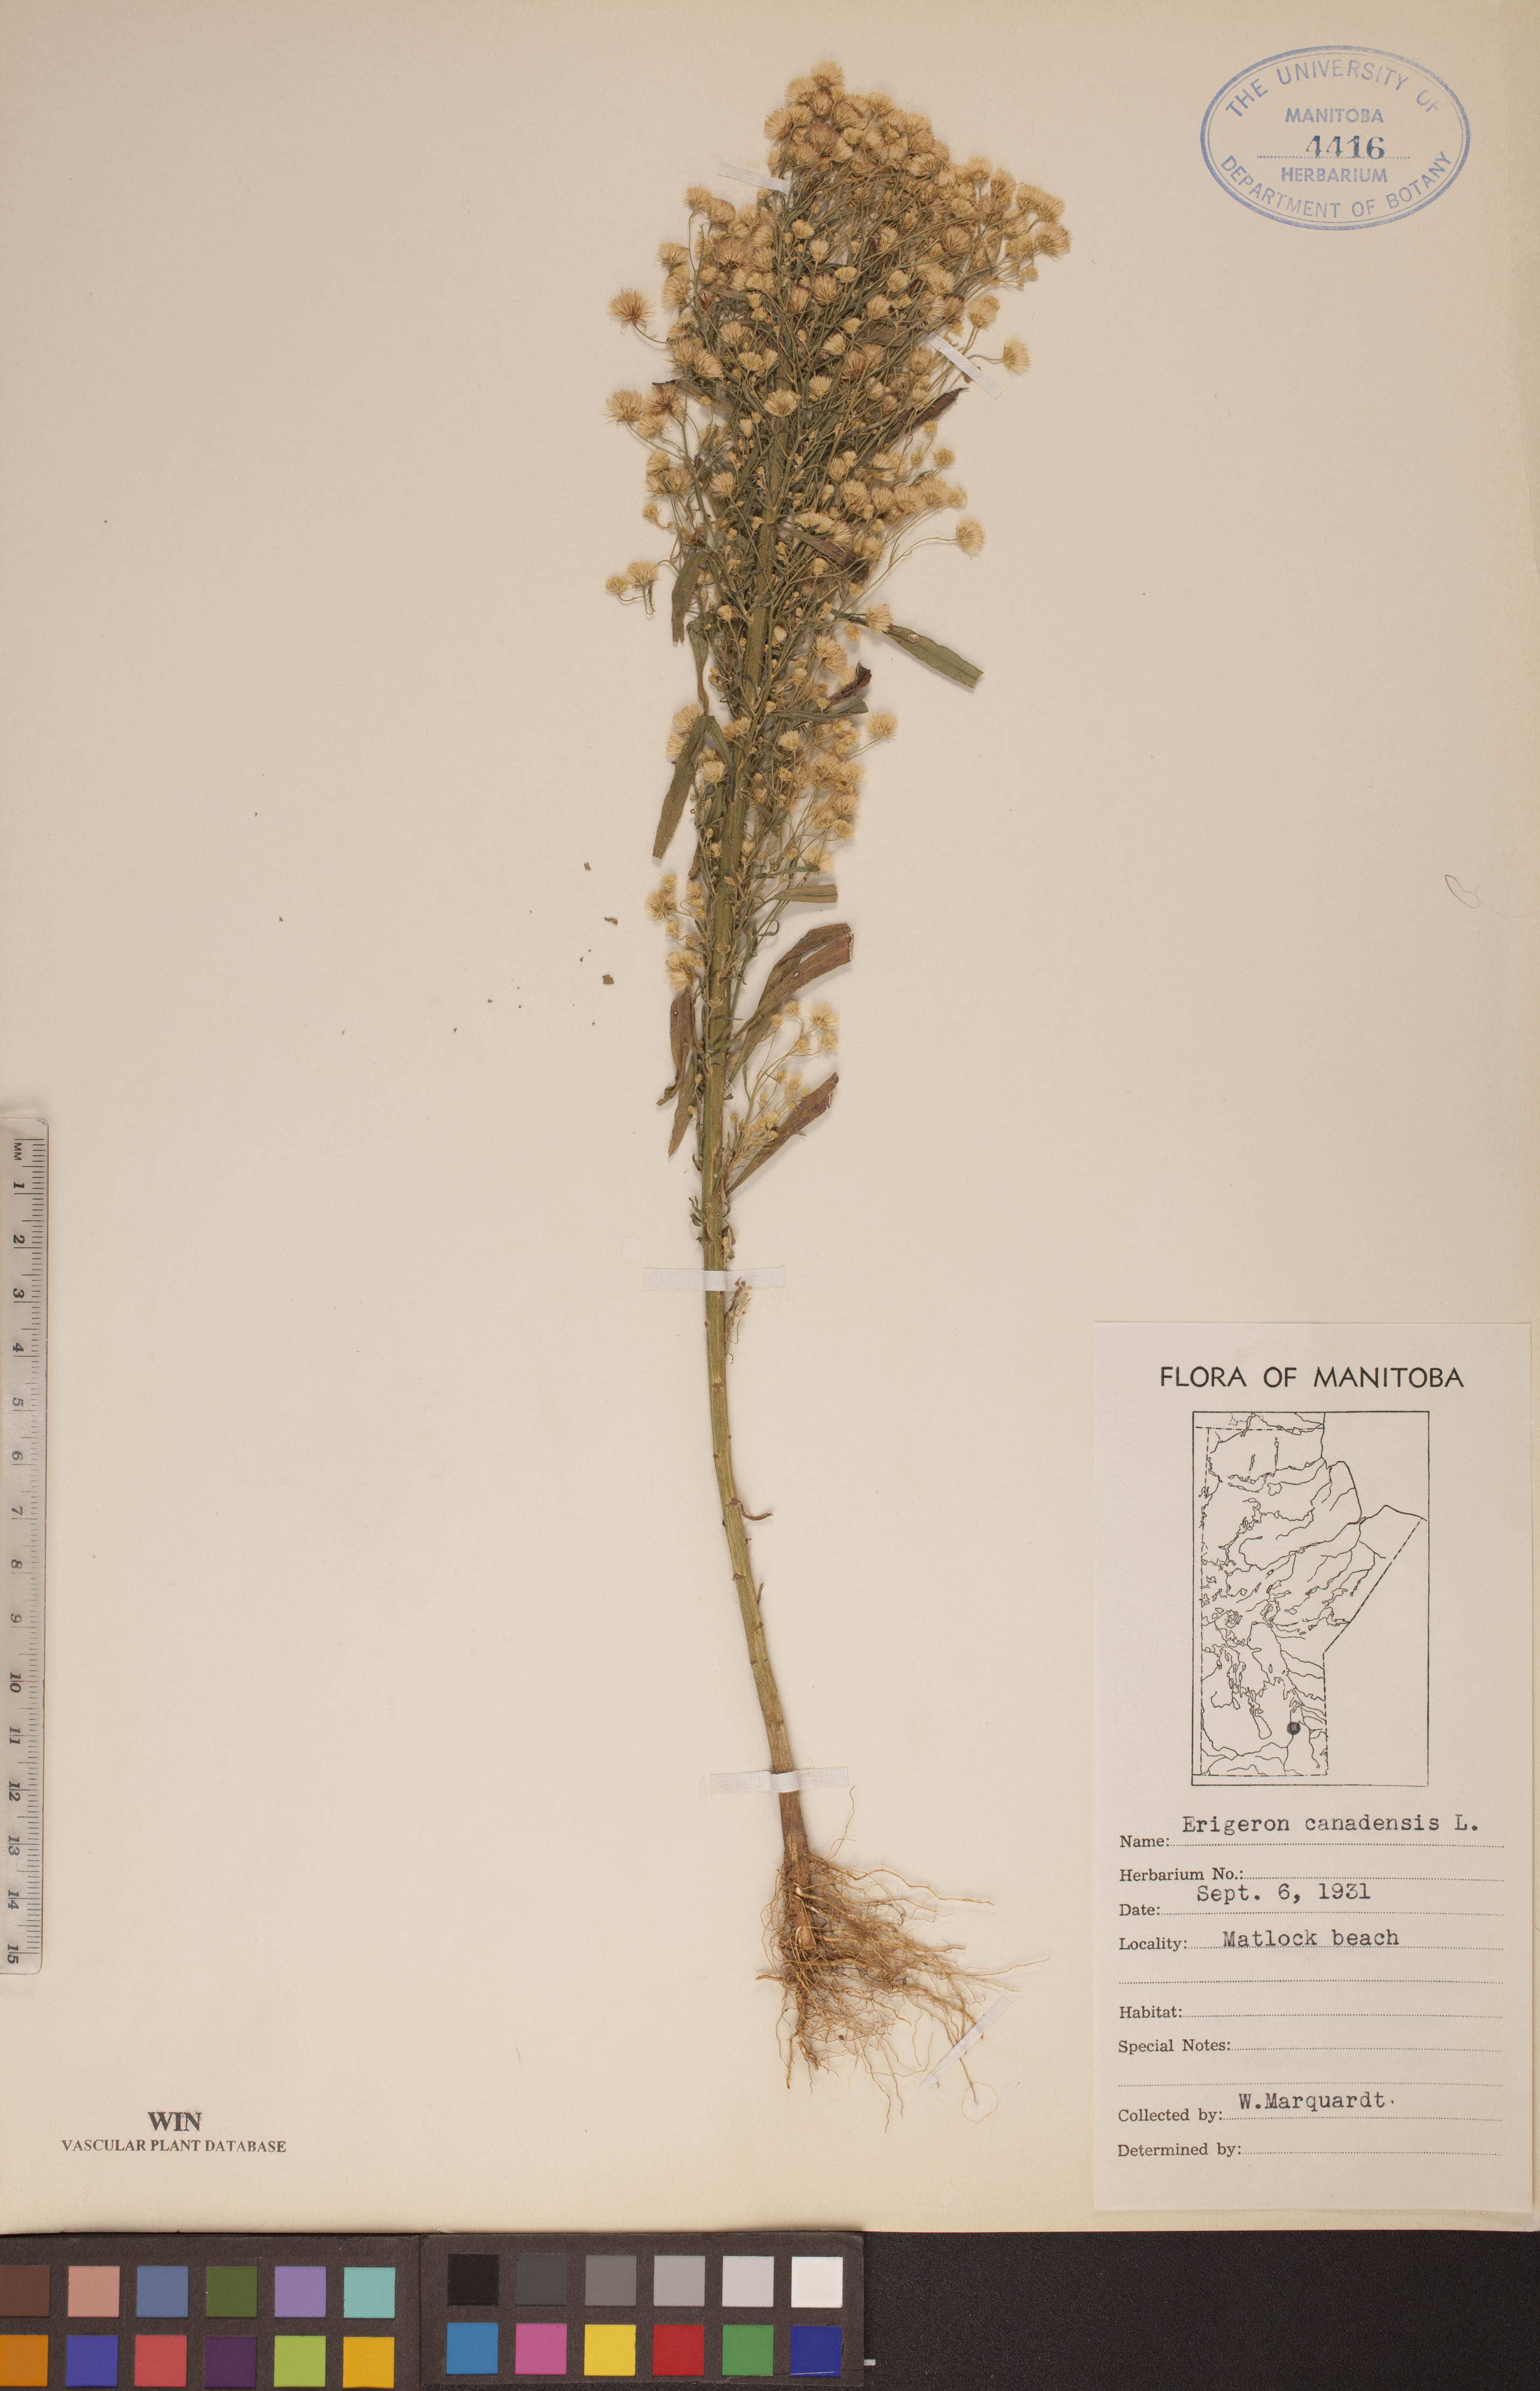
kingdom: Plantae
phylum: Tracheophyta
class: Magnoliopsida
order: Asterales
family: Asteraceae
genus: Erigeron
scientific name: Erigeron canadensis
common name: Canadian fleabane
